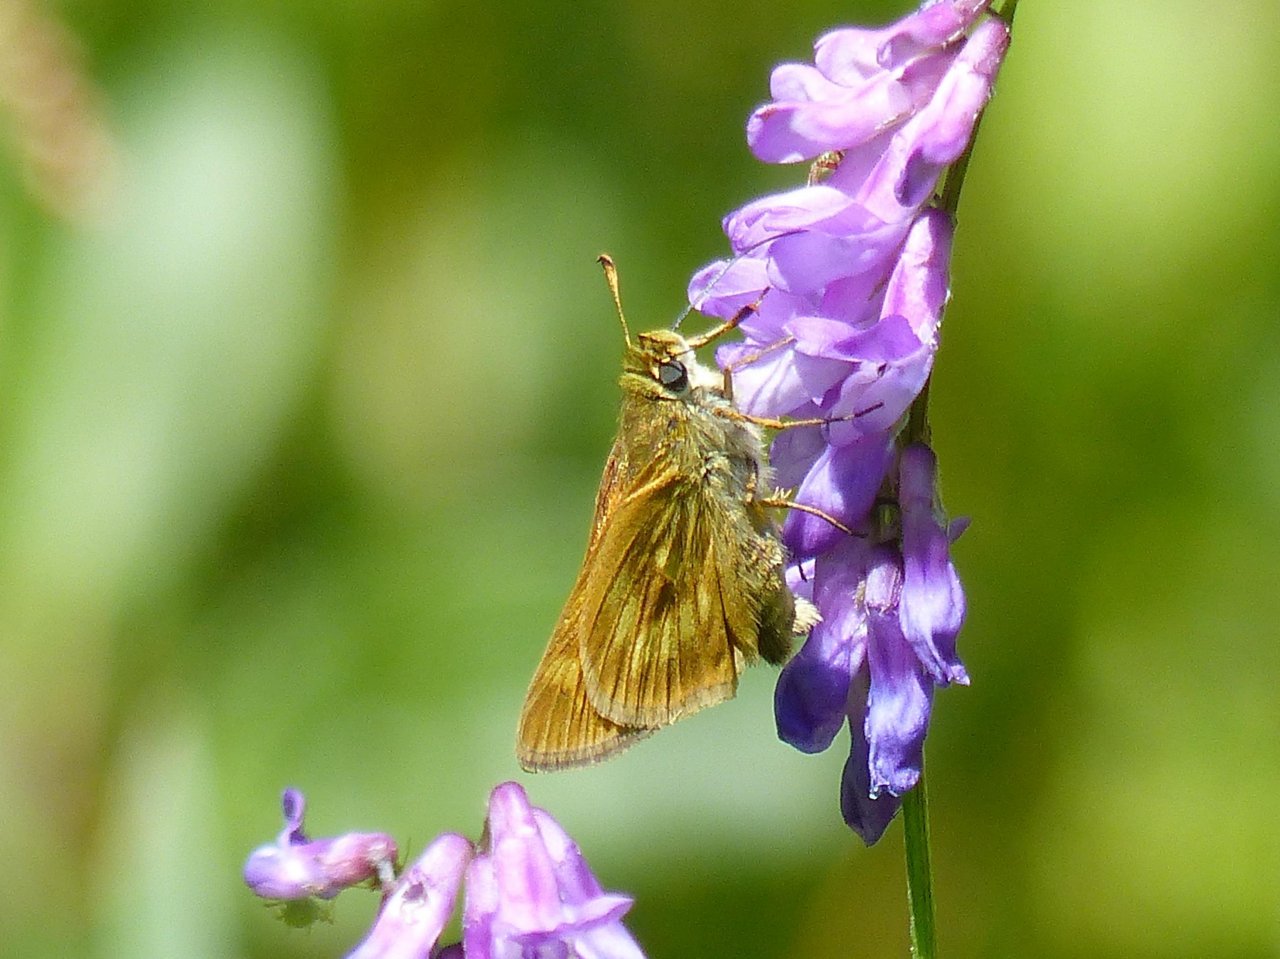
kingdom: Animalia
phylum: Arthropoda
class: Insecta
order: Lepidoptera
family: Hesperiidae
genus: Polites
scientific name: Polites
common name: Long Dash Skipper
